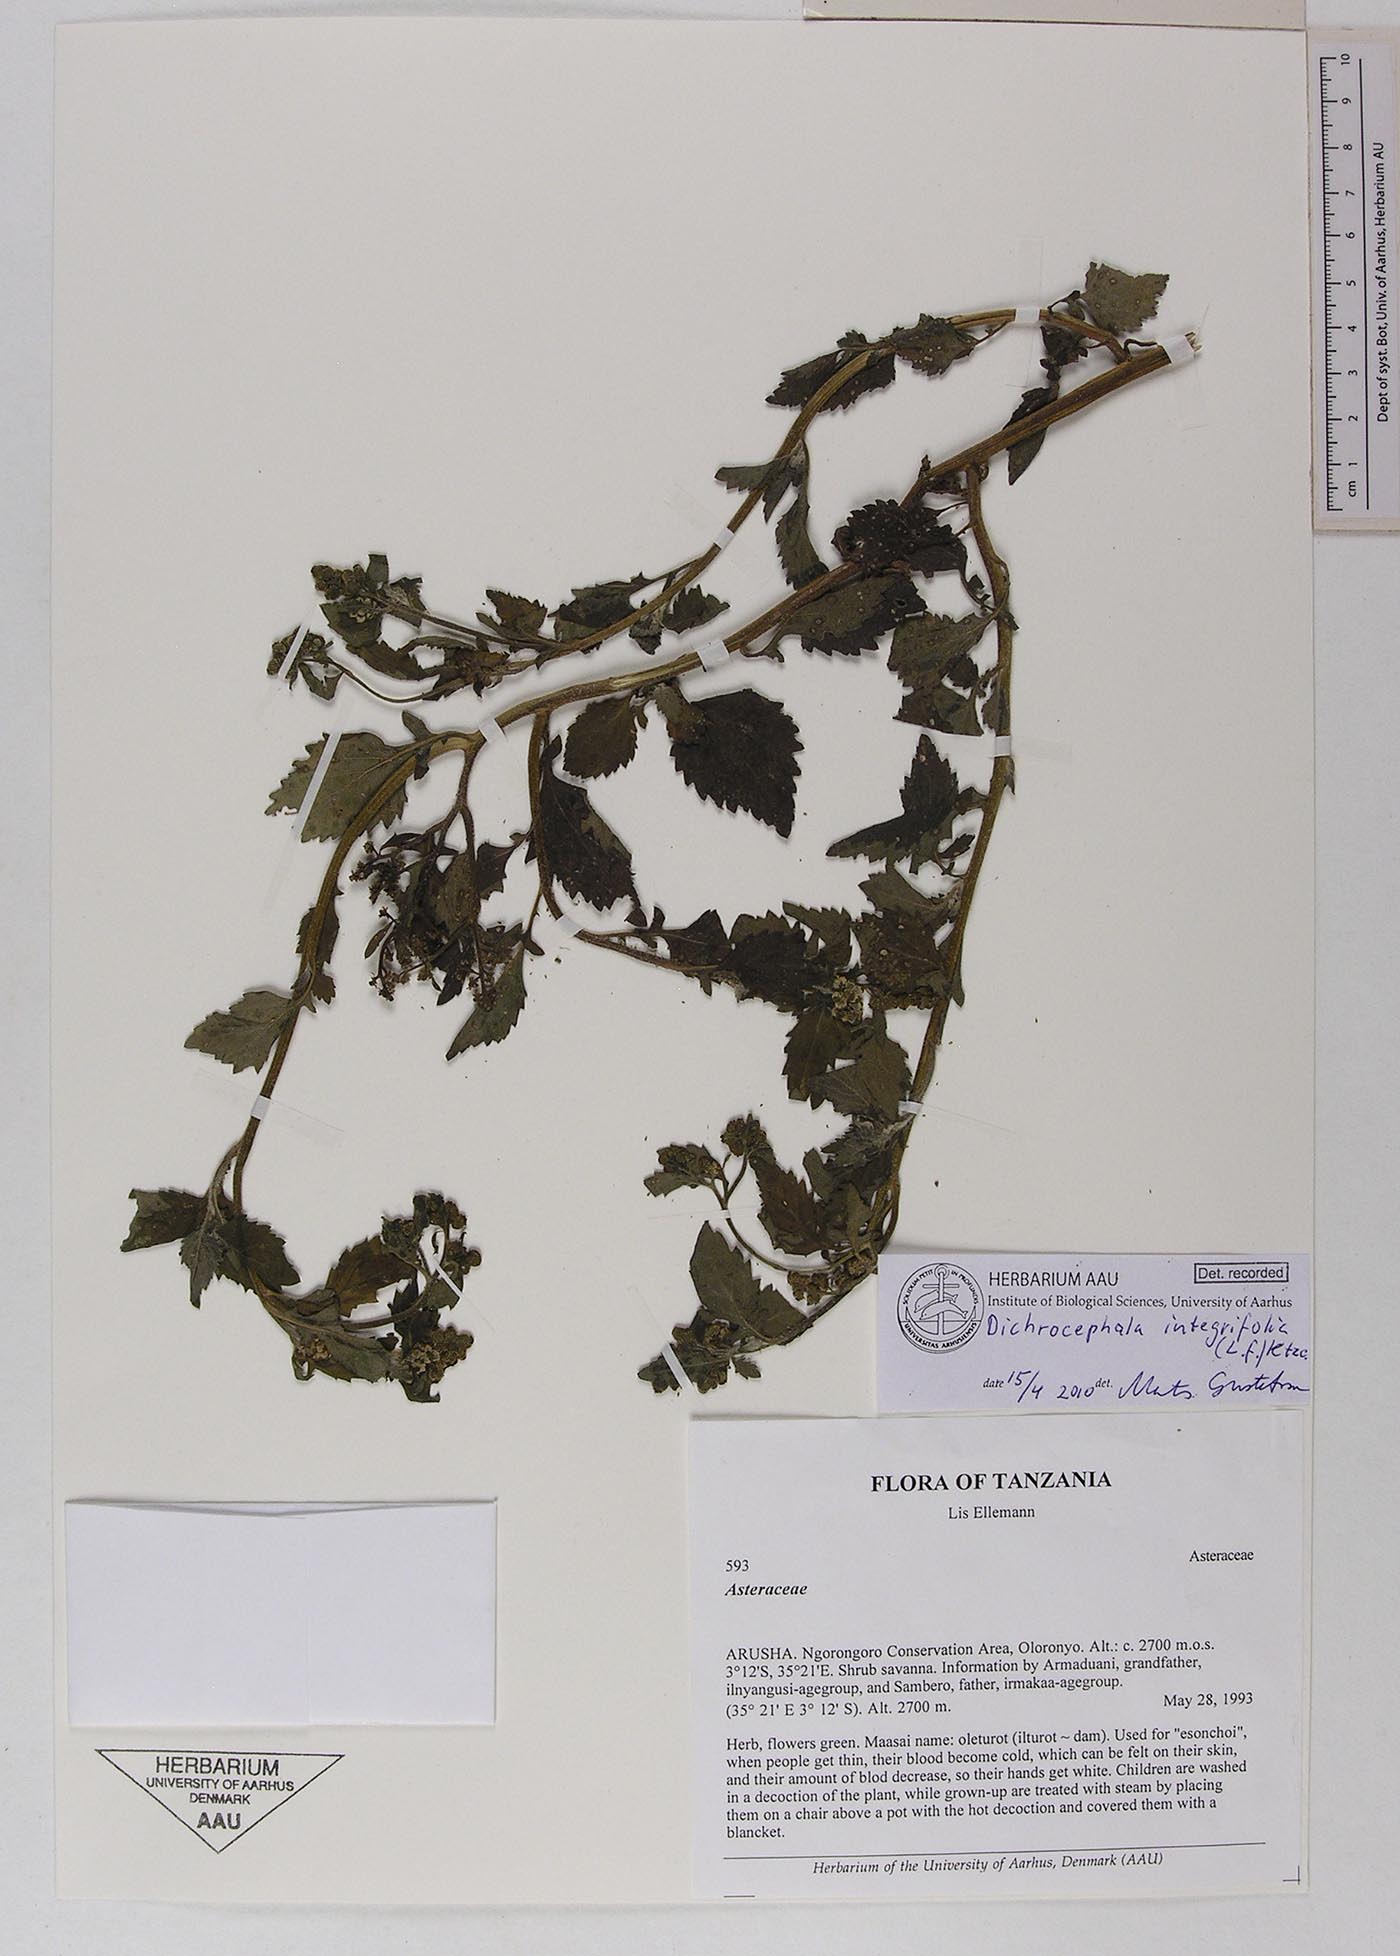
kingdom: Plantae
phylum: Tracheophyta
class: Magnoliopsida
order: Asterales
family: Asteraceae
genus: Dichrocephala
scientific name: Dichrocephala integrifolia
